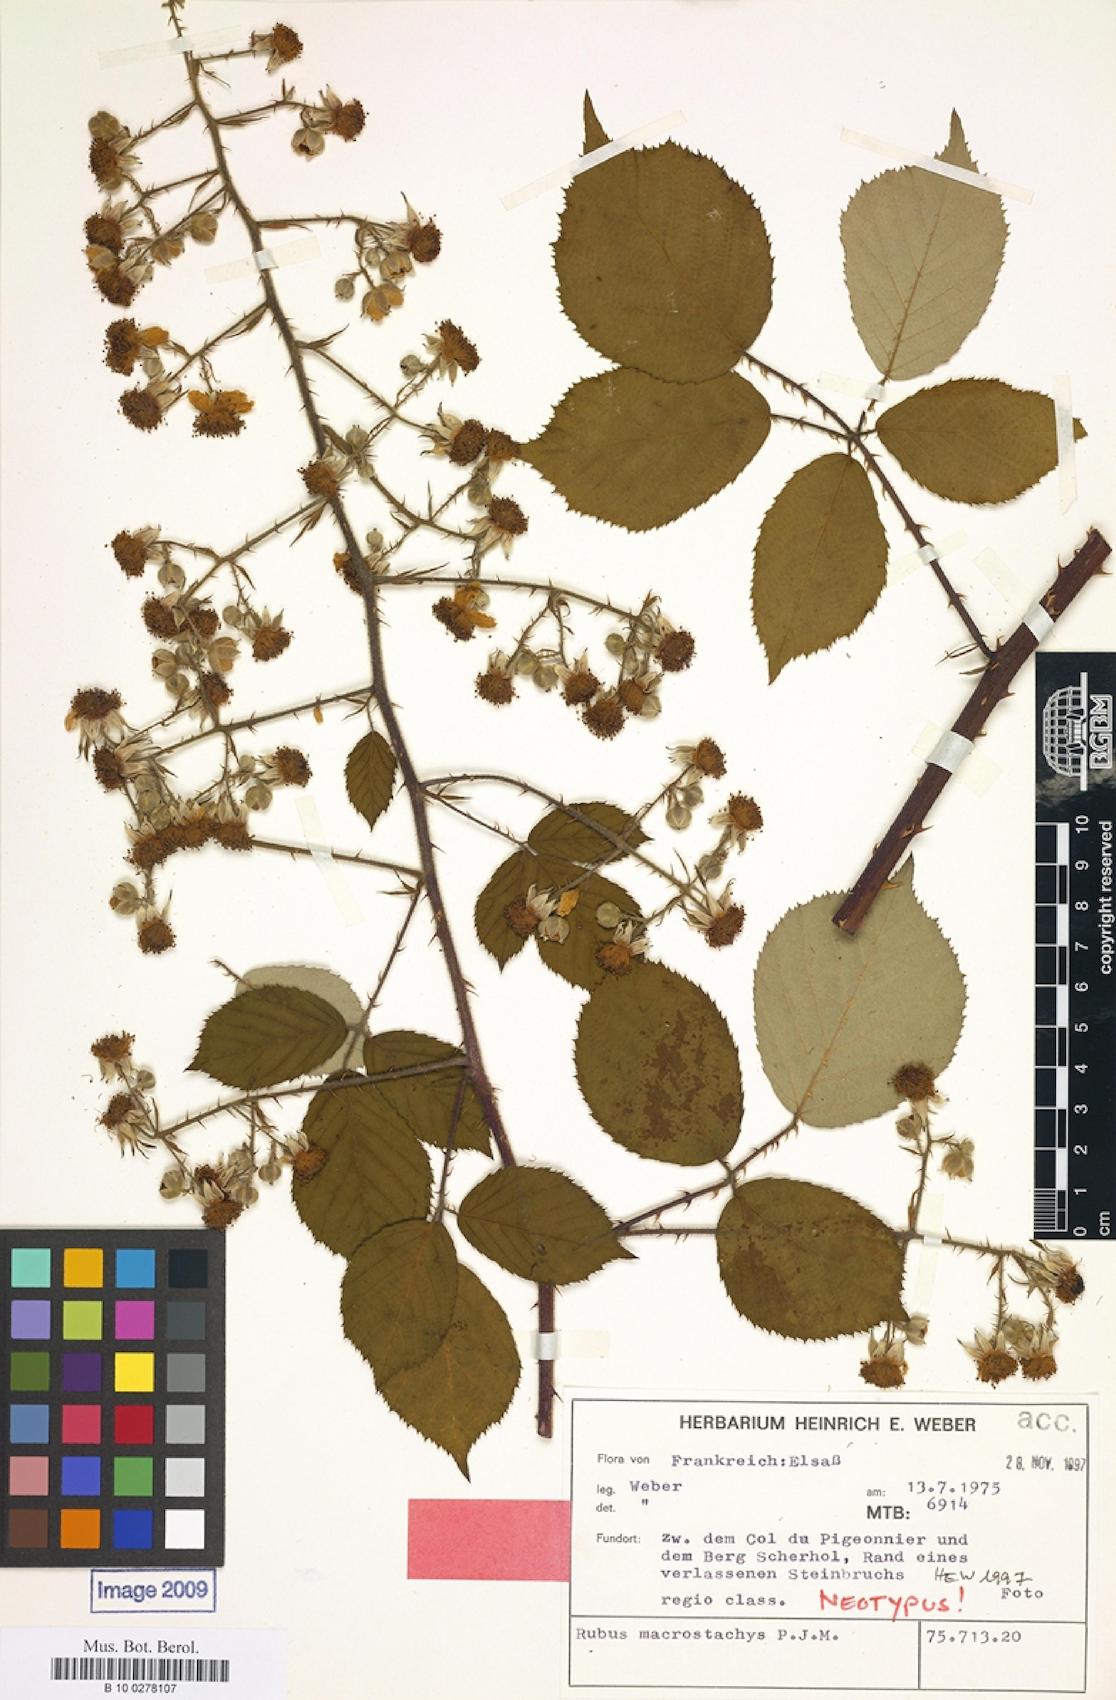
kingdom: Plantae
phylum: Tracheophyta
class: Magnoliopsida
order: Rosales
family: Rosaceae
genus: Rubus
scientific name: Rubus macrostachys
